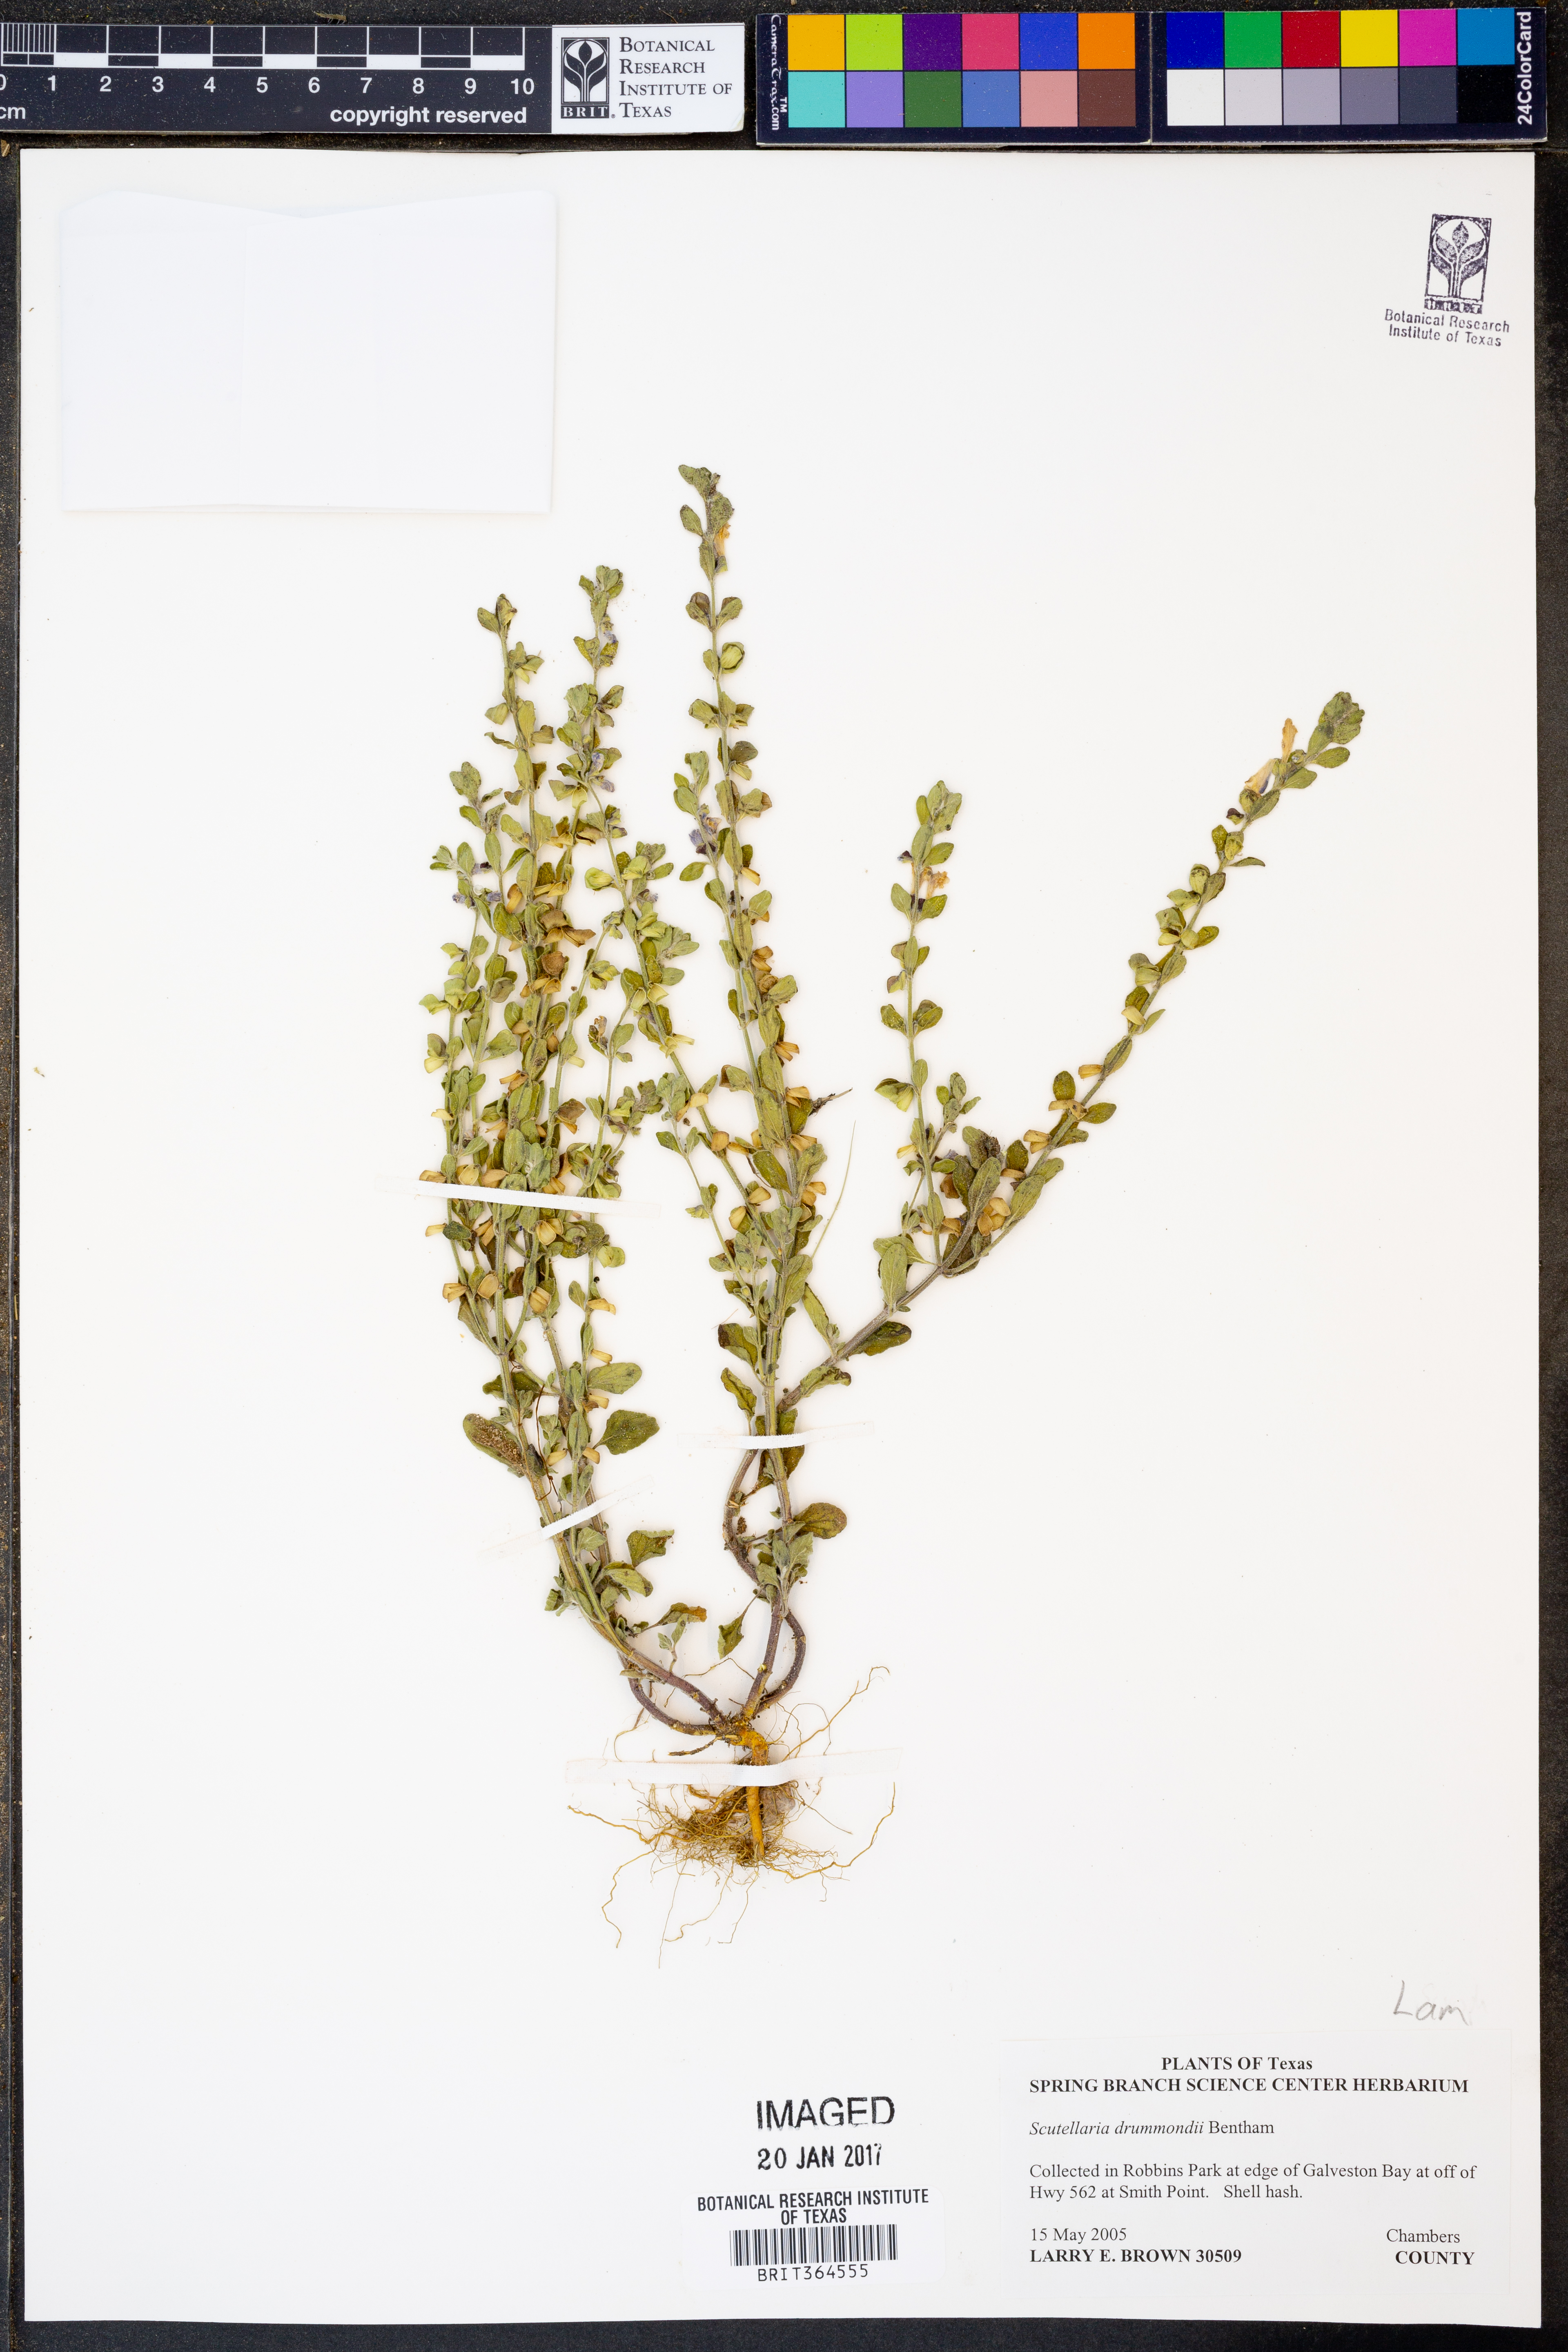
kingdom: Plantae
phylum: Tracheophyta
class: Magnoliopsida
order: Lamiales
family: Lamiaceae
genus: Scutellaria
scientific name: Scutellaria drummondii
